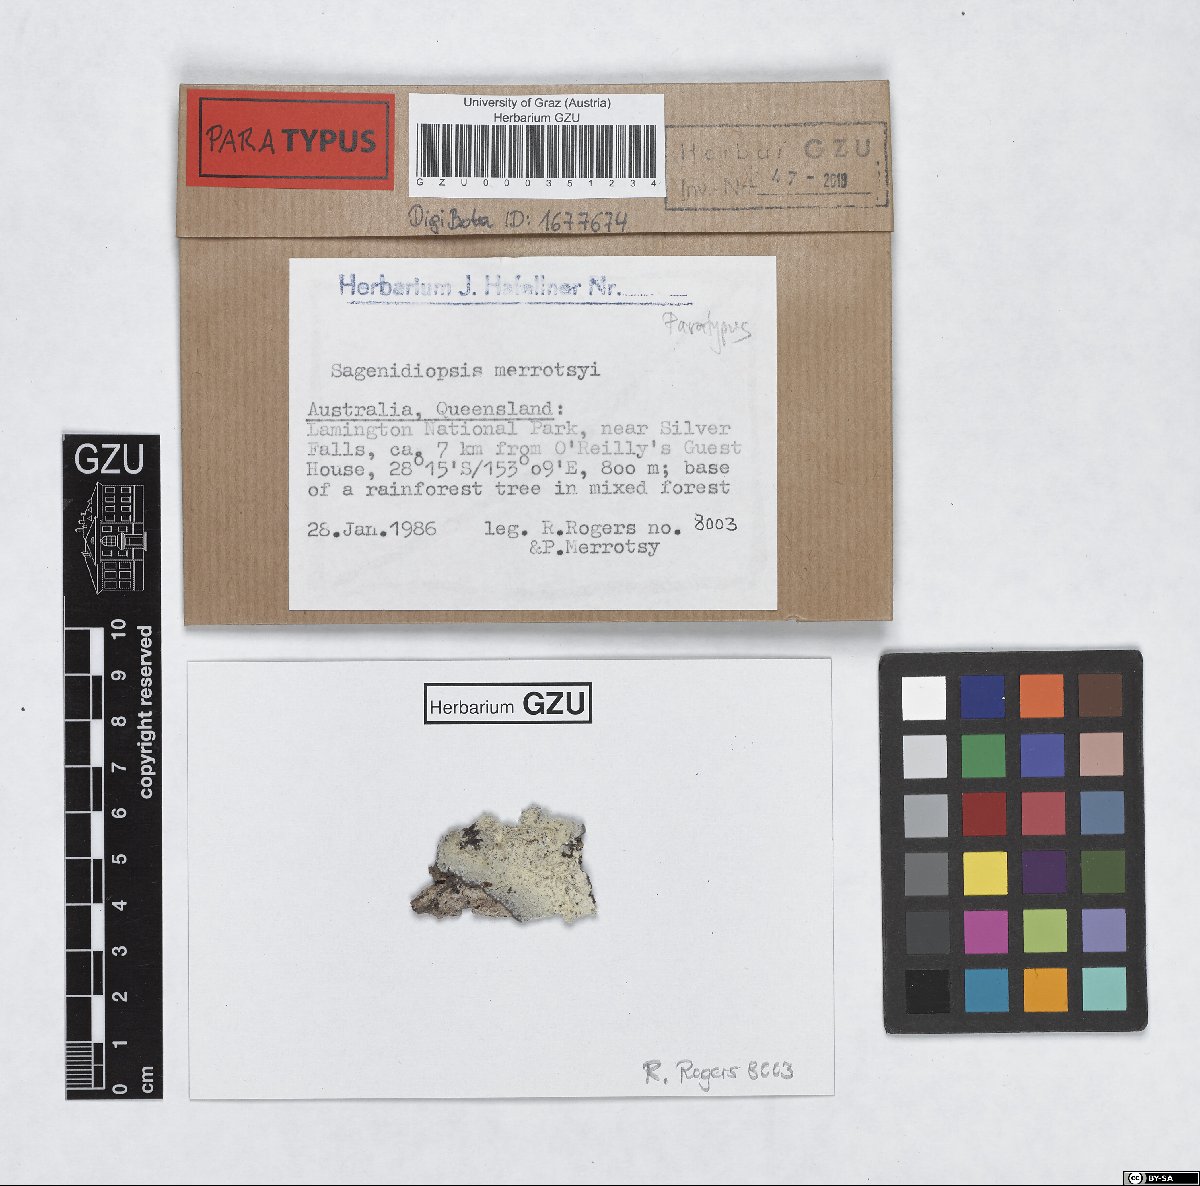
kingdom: Fungi
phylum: Ascomycota
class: Arthoniomycetes
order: Arthoniales
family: Roccellaceae
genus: Sagenidiopsis
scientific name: Sagenidiopsis merrotsyi
